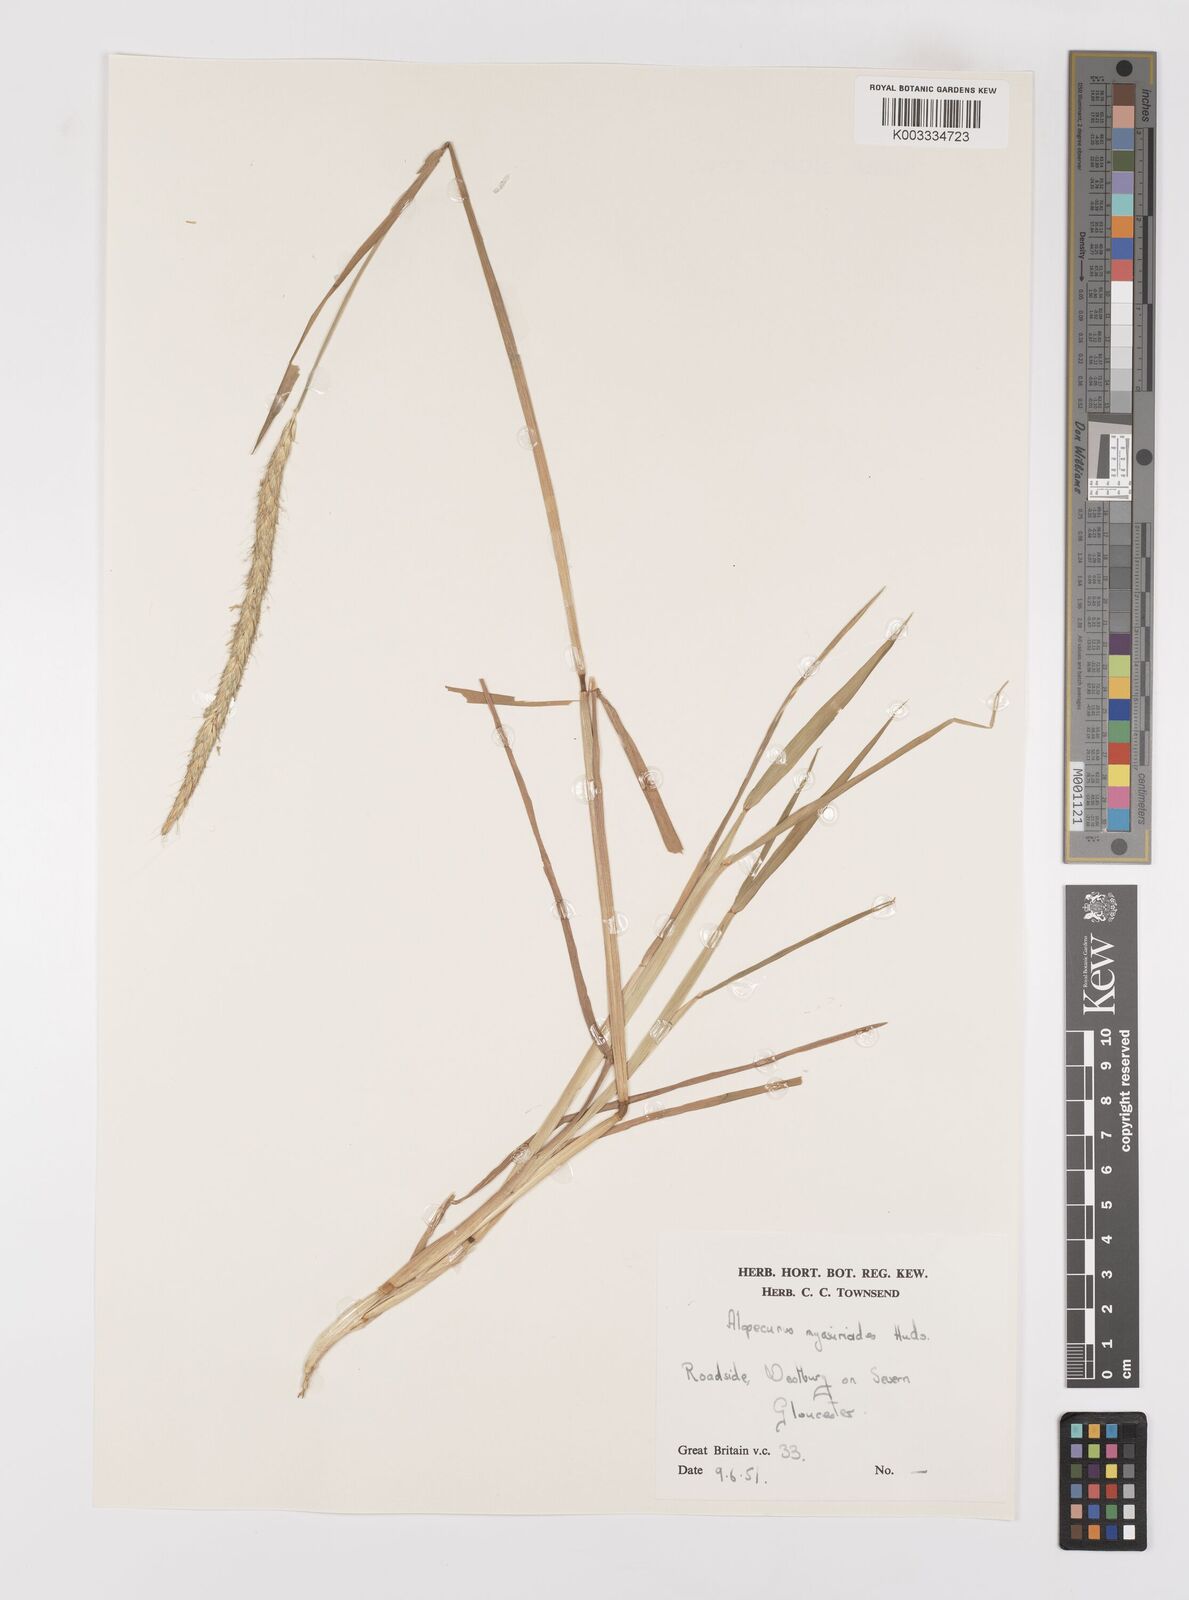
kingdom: Plantae
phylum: Tracheophyta
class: Liliopsida
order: Poales
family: Poaceae
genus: Alopecurus
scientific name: Alopecurus myosuroides
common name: Black-grass
